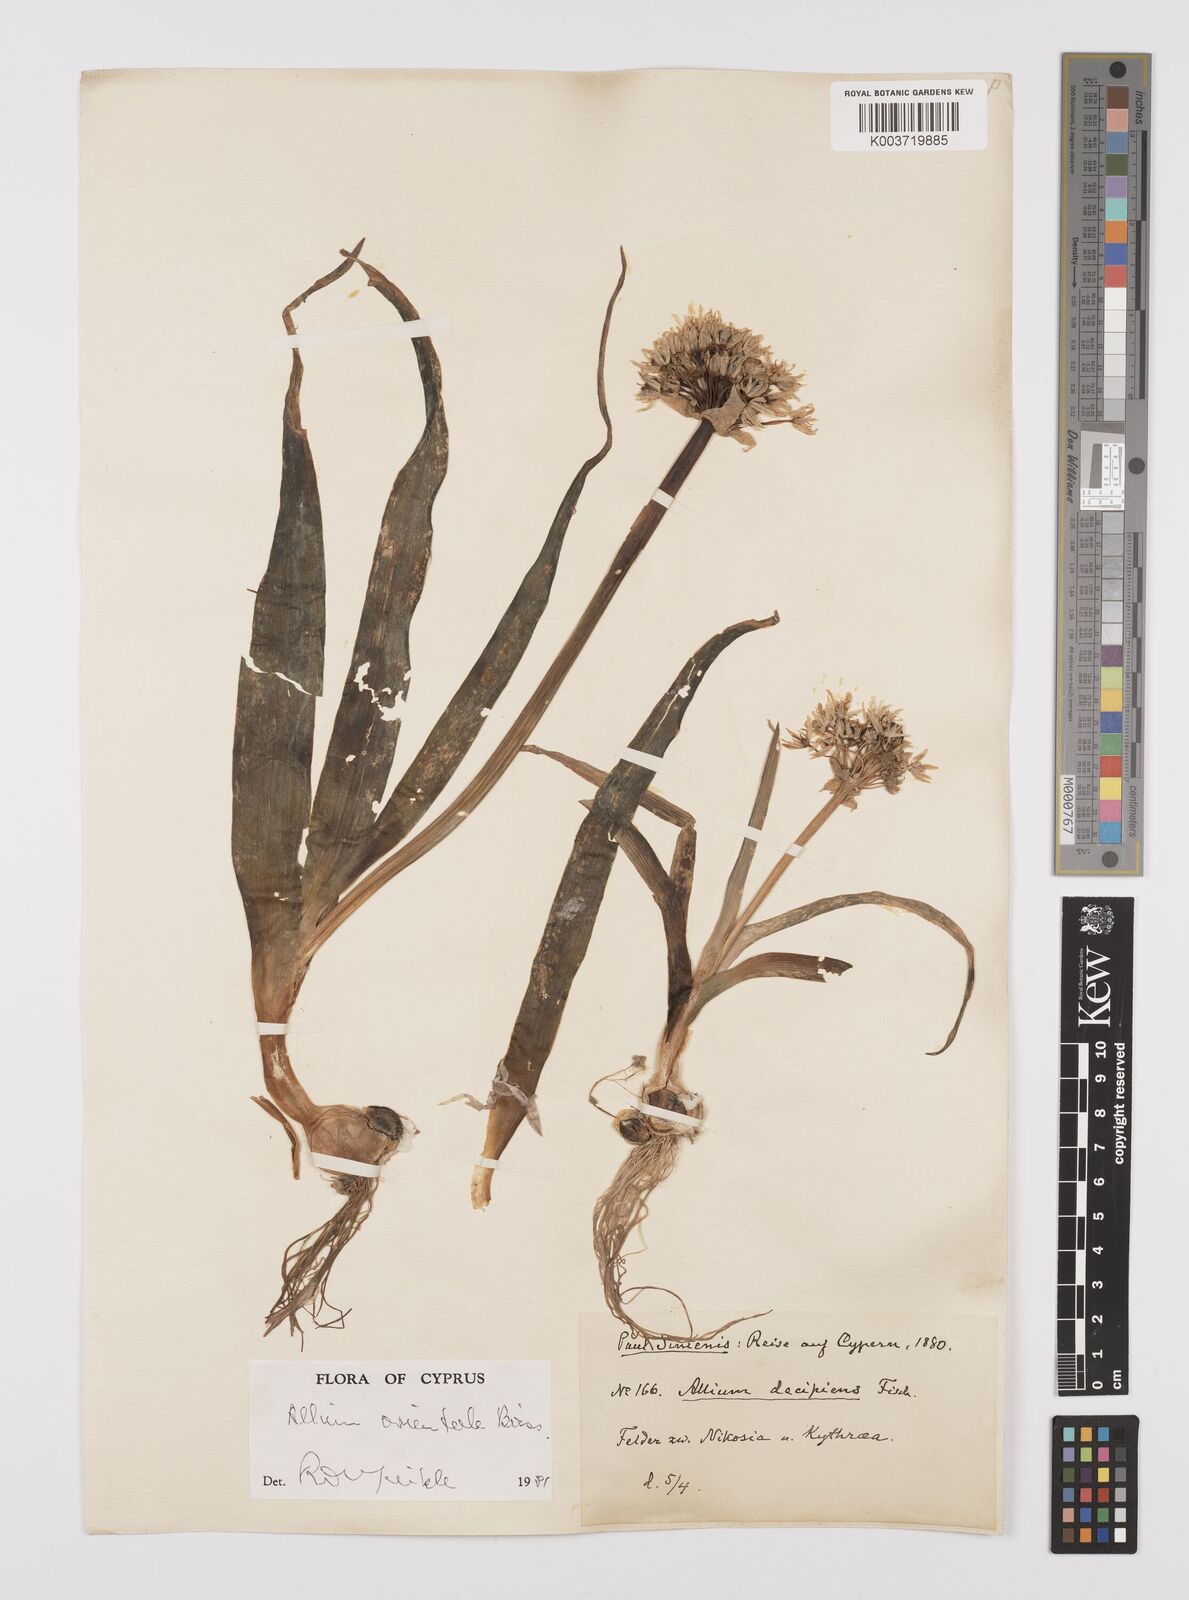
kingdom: Plantae
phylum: Tracheophyta
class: Liliopsida
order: Asparagales
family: Amaryllidaceae
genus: Allium
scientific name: Allium orientale
